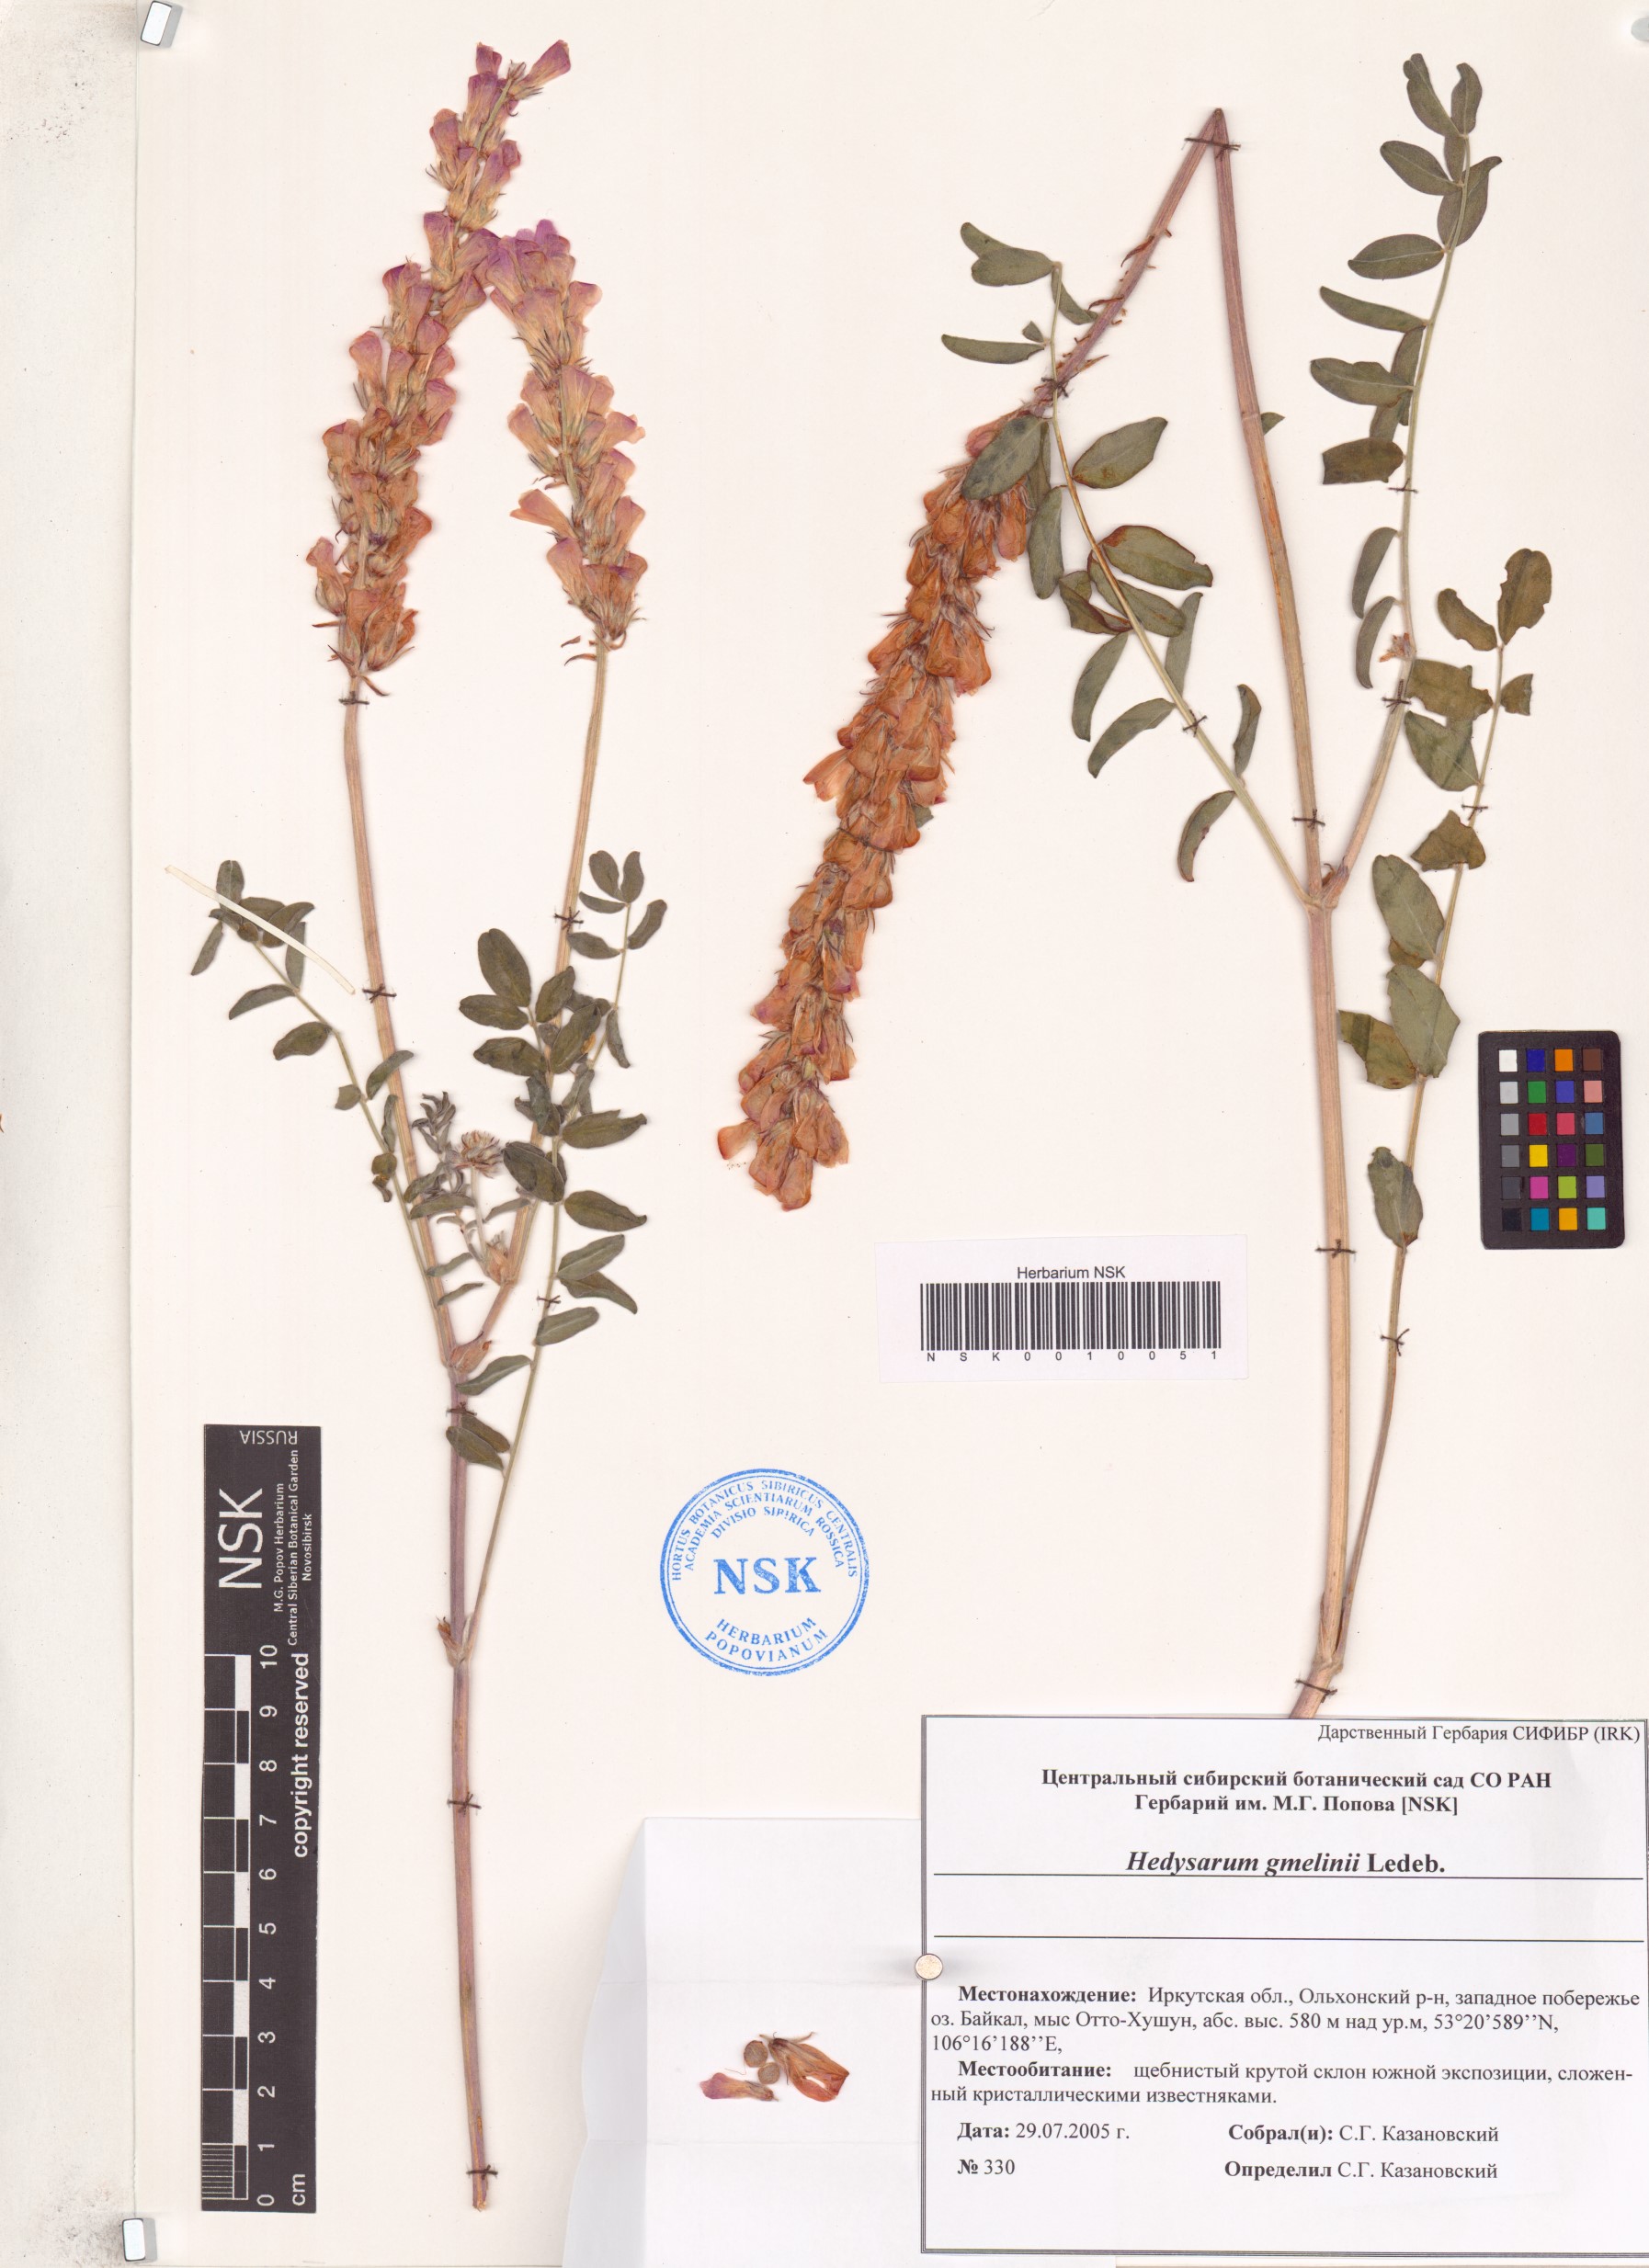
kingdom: Plantae
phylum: Tracheophyta
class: Magnoliopsida
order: Fabales
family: Fabaceae
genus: Hedysarum
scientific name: Hedysarum gmelinii
